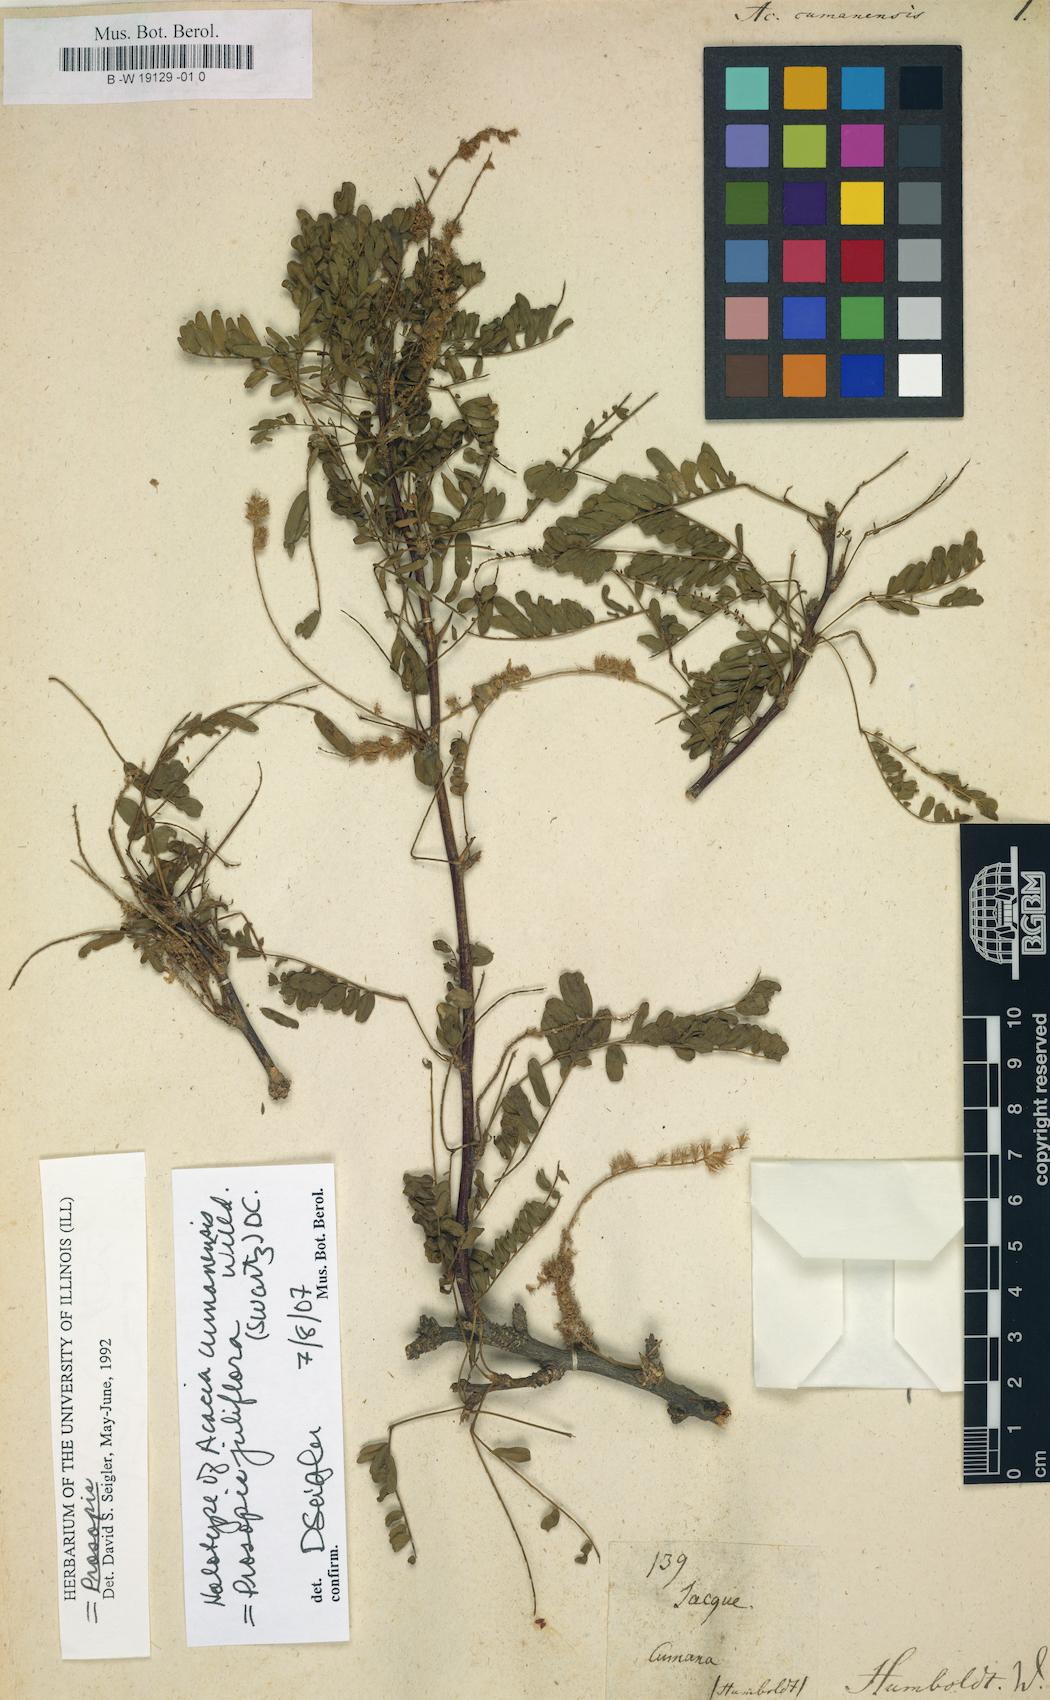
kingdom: Plantae
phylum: Tracheophyta
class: Magnoliopsida
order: Fabales
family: Fabaceae
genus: Prosopis
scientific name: Prosopis juliflora
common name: Mesquite
